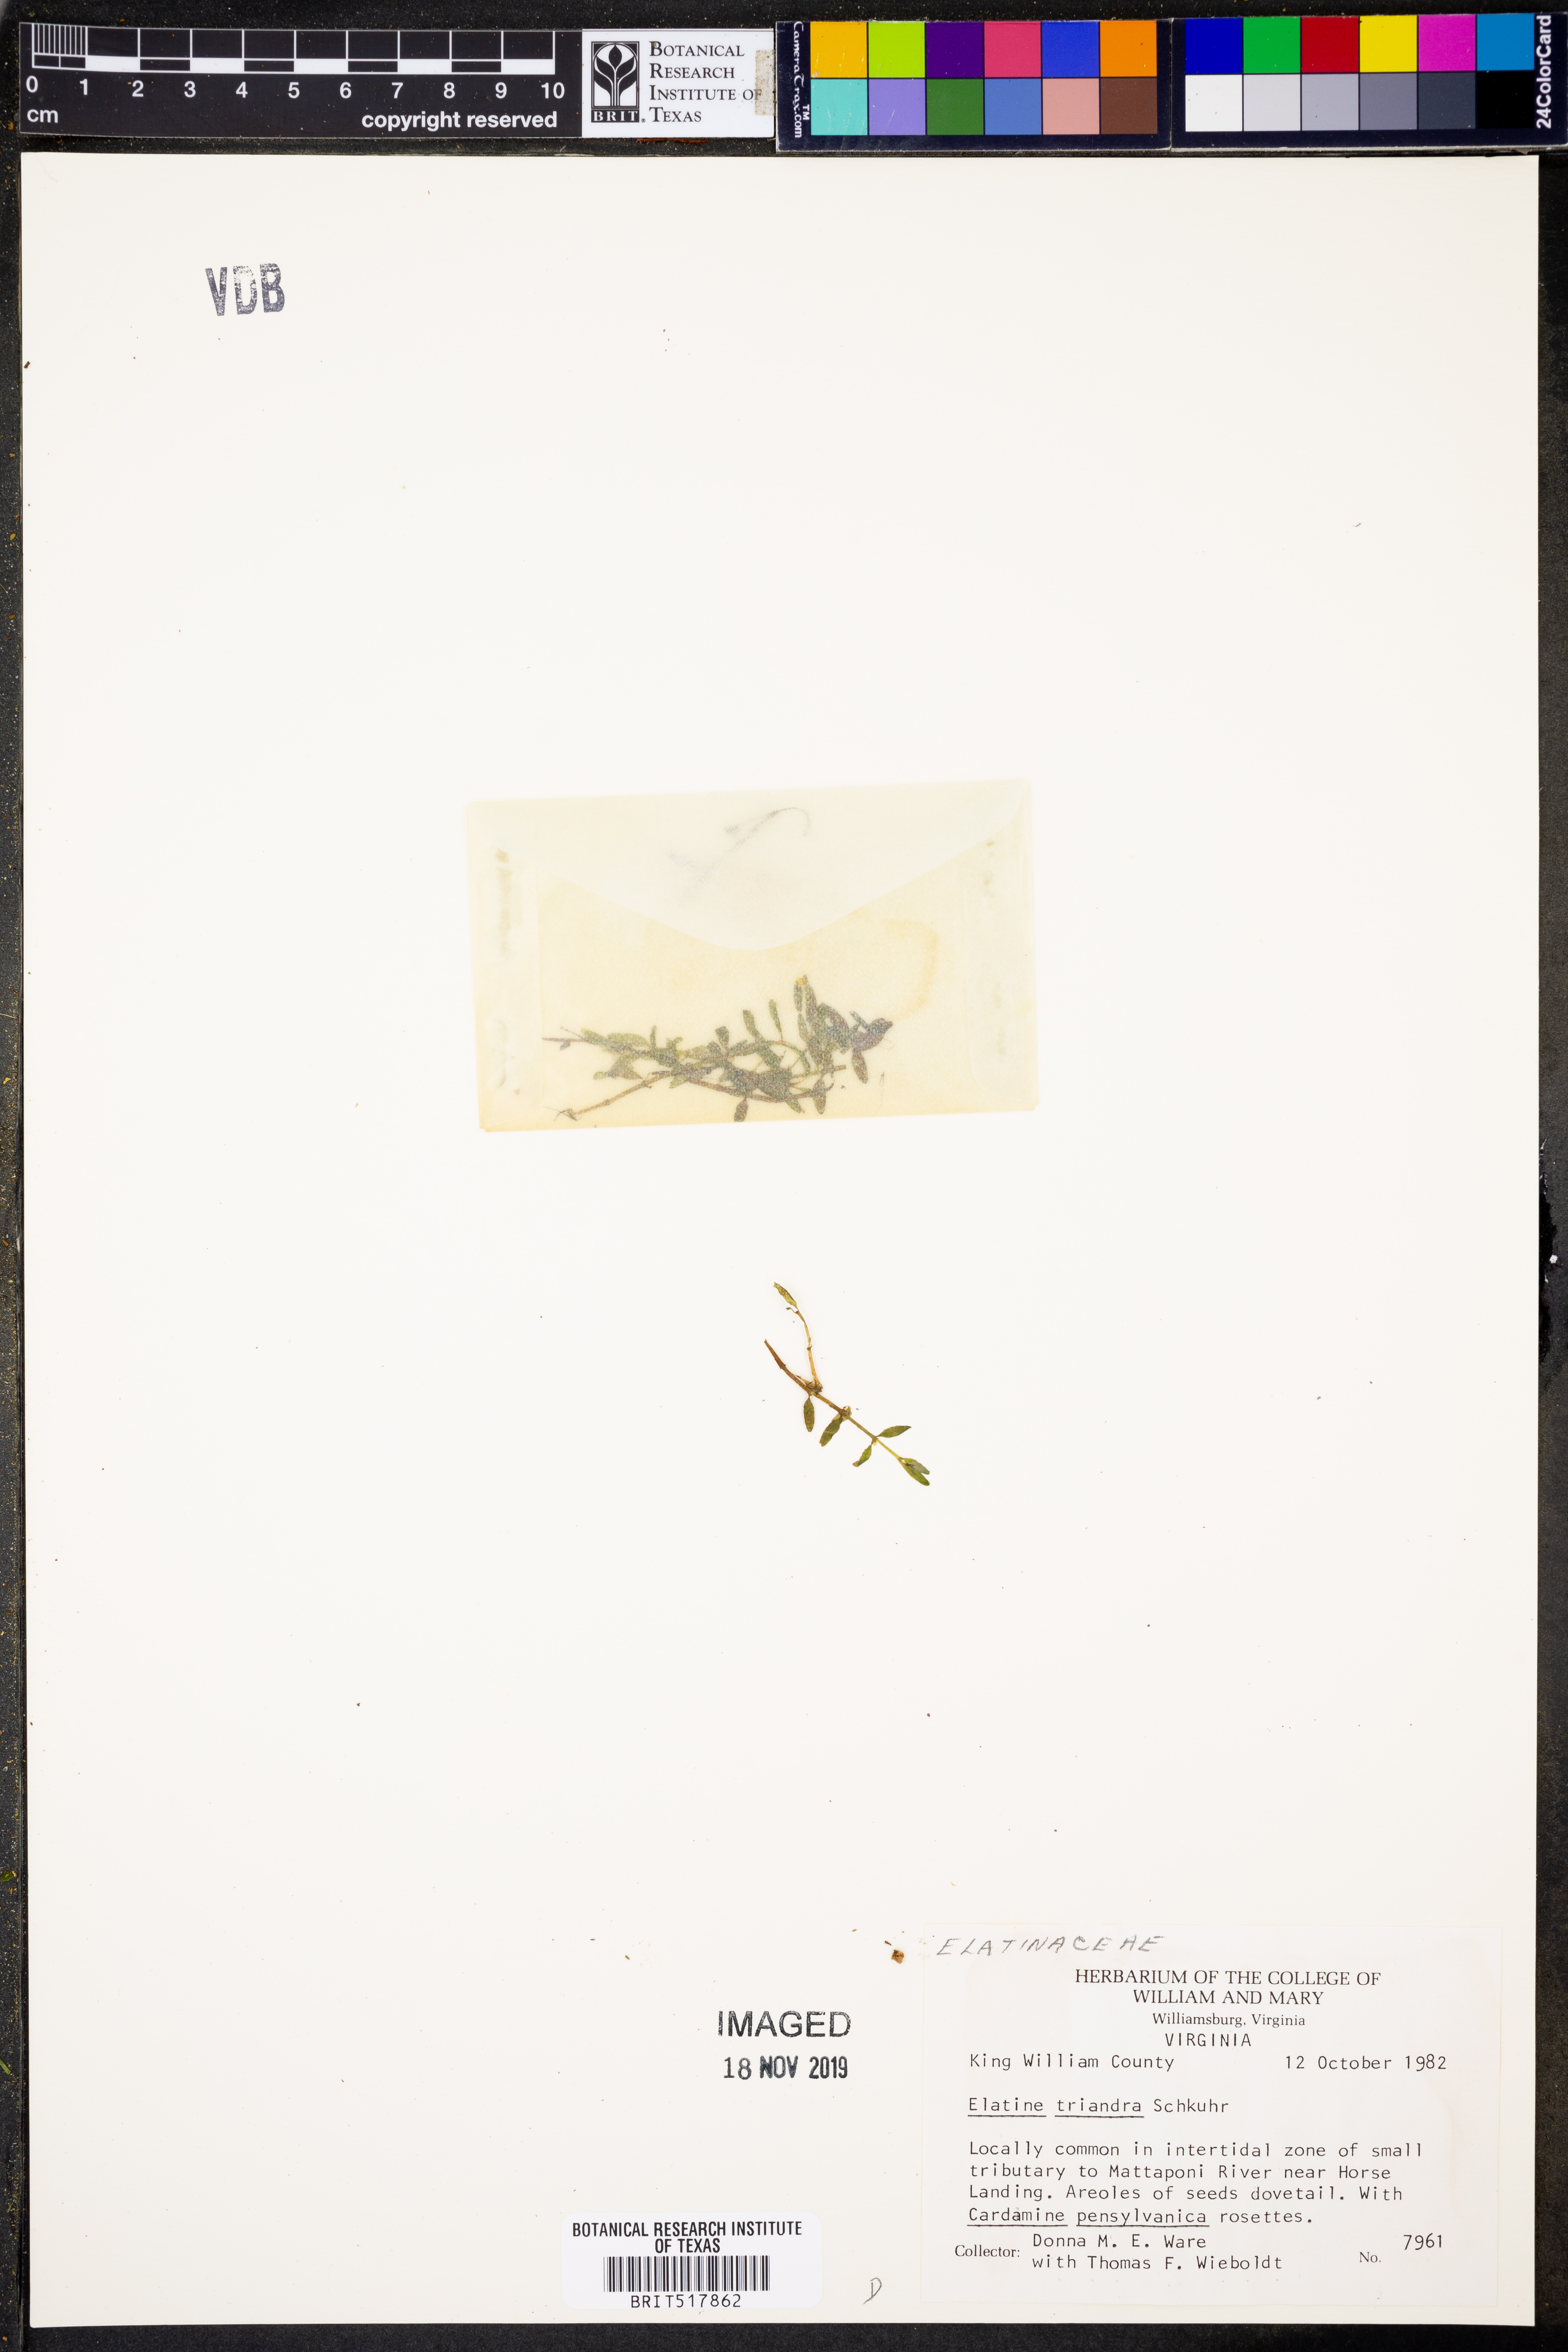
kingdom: Plantae
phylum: Tracheophyta
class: Magnoliopsida
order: Malpighiales
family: Elatinaceae
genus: Elatine
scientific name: Elatine triandra
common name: Three-stamened waterwort
